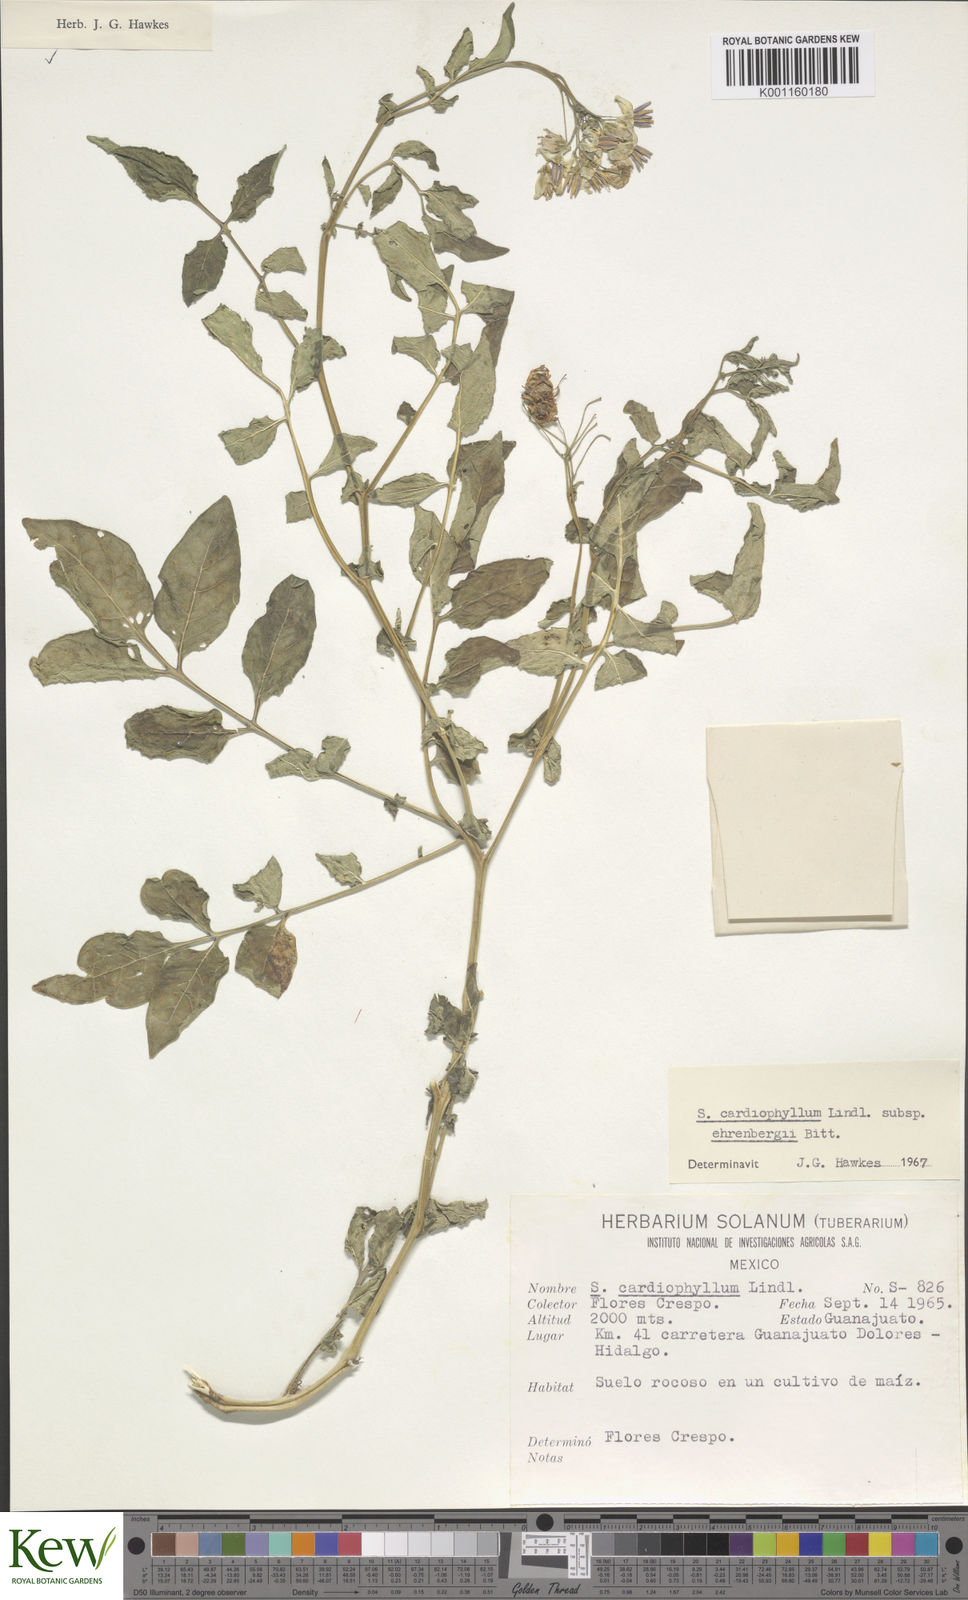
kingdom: Plantae
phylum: Tracheophyta
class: Magnoliopsida
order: Solanales
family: Solanaceae
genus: Solanum
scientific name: Solanum cardiophyllum
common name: Heartleaf horsenettle
